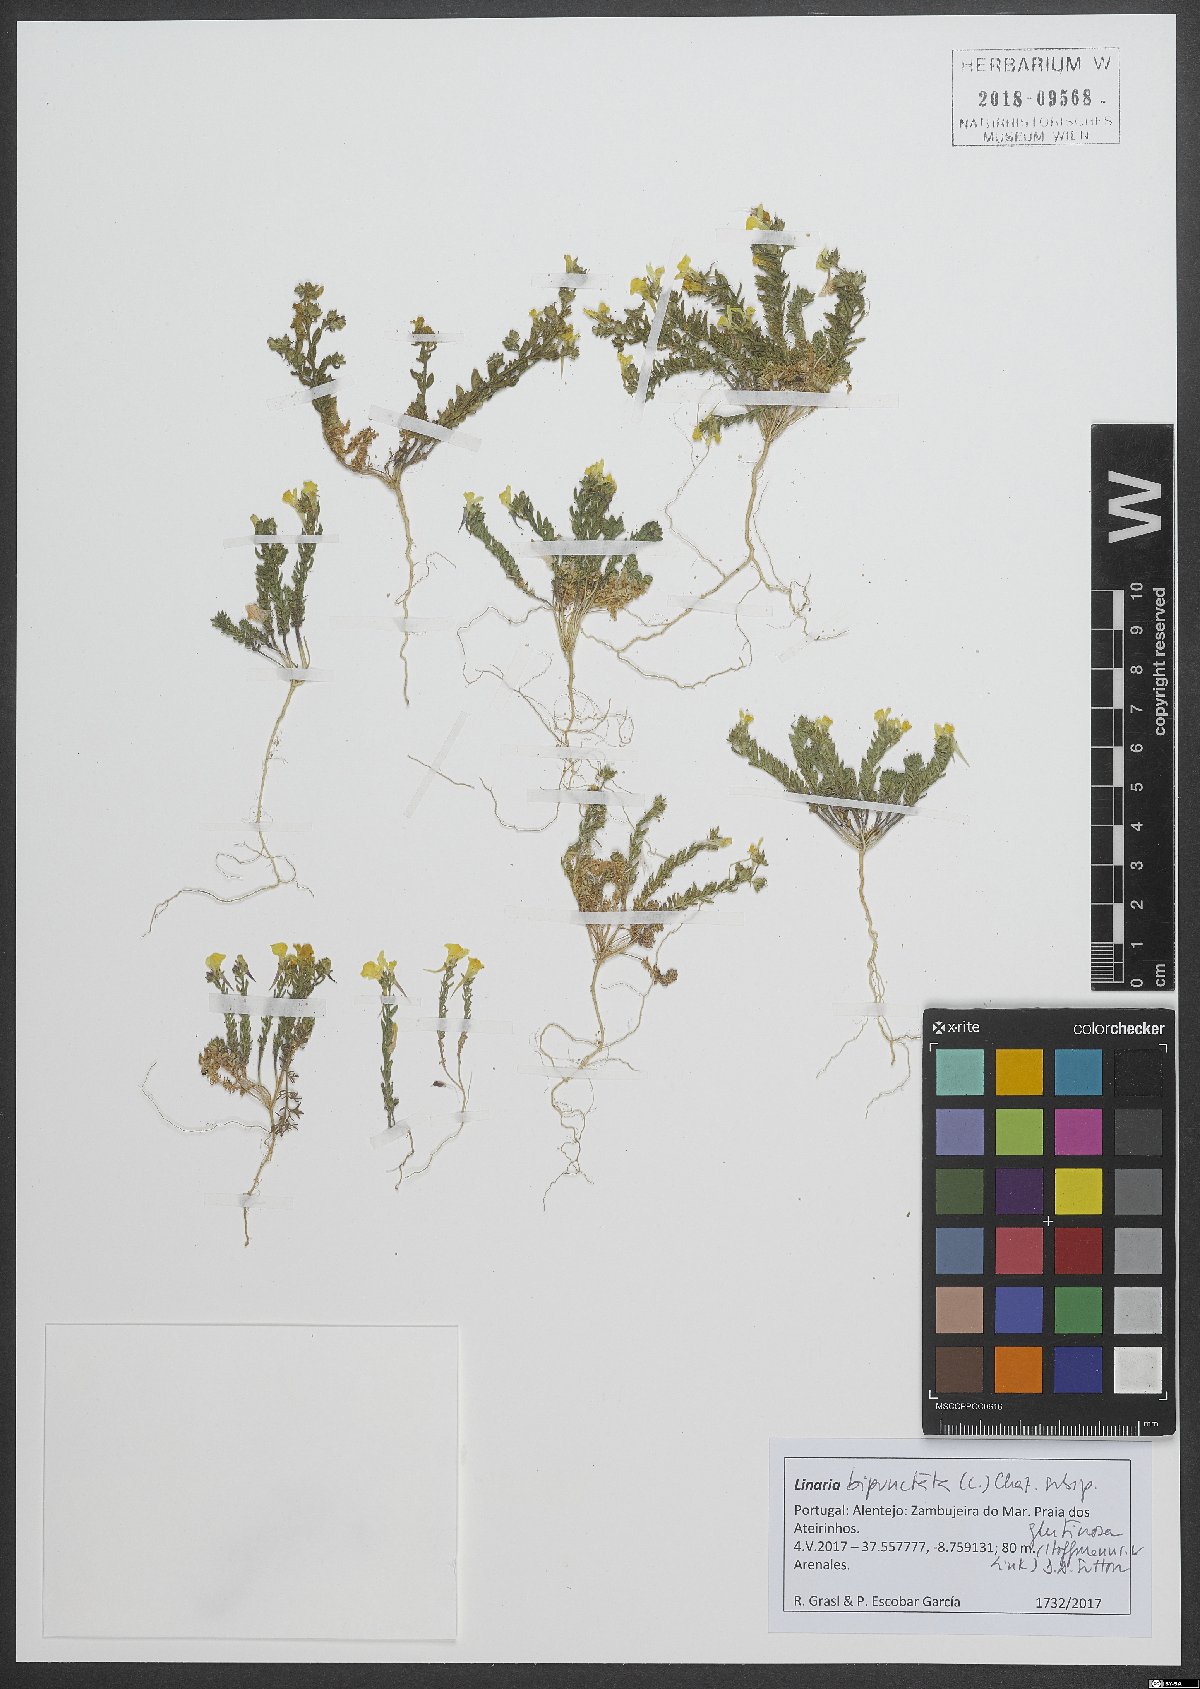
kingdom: Plantae
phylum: Tracheophyta
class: Magnoliopsida
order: Lamiales
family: Plantaginaceae
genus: Linaria
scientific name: Linaria bipunctata
